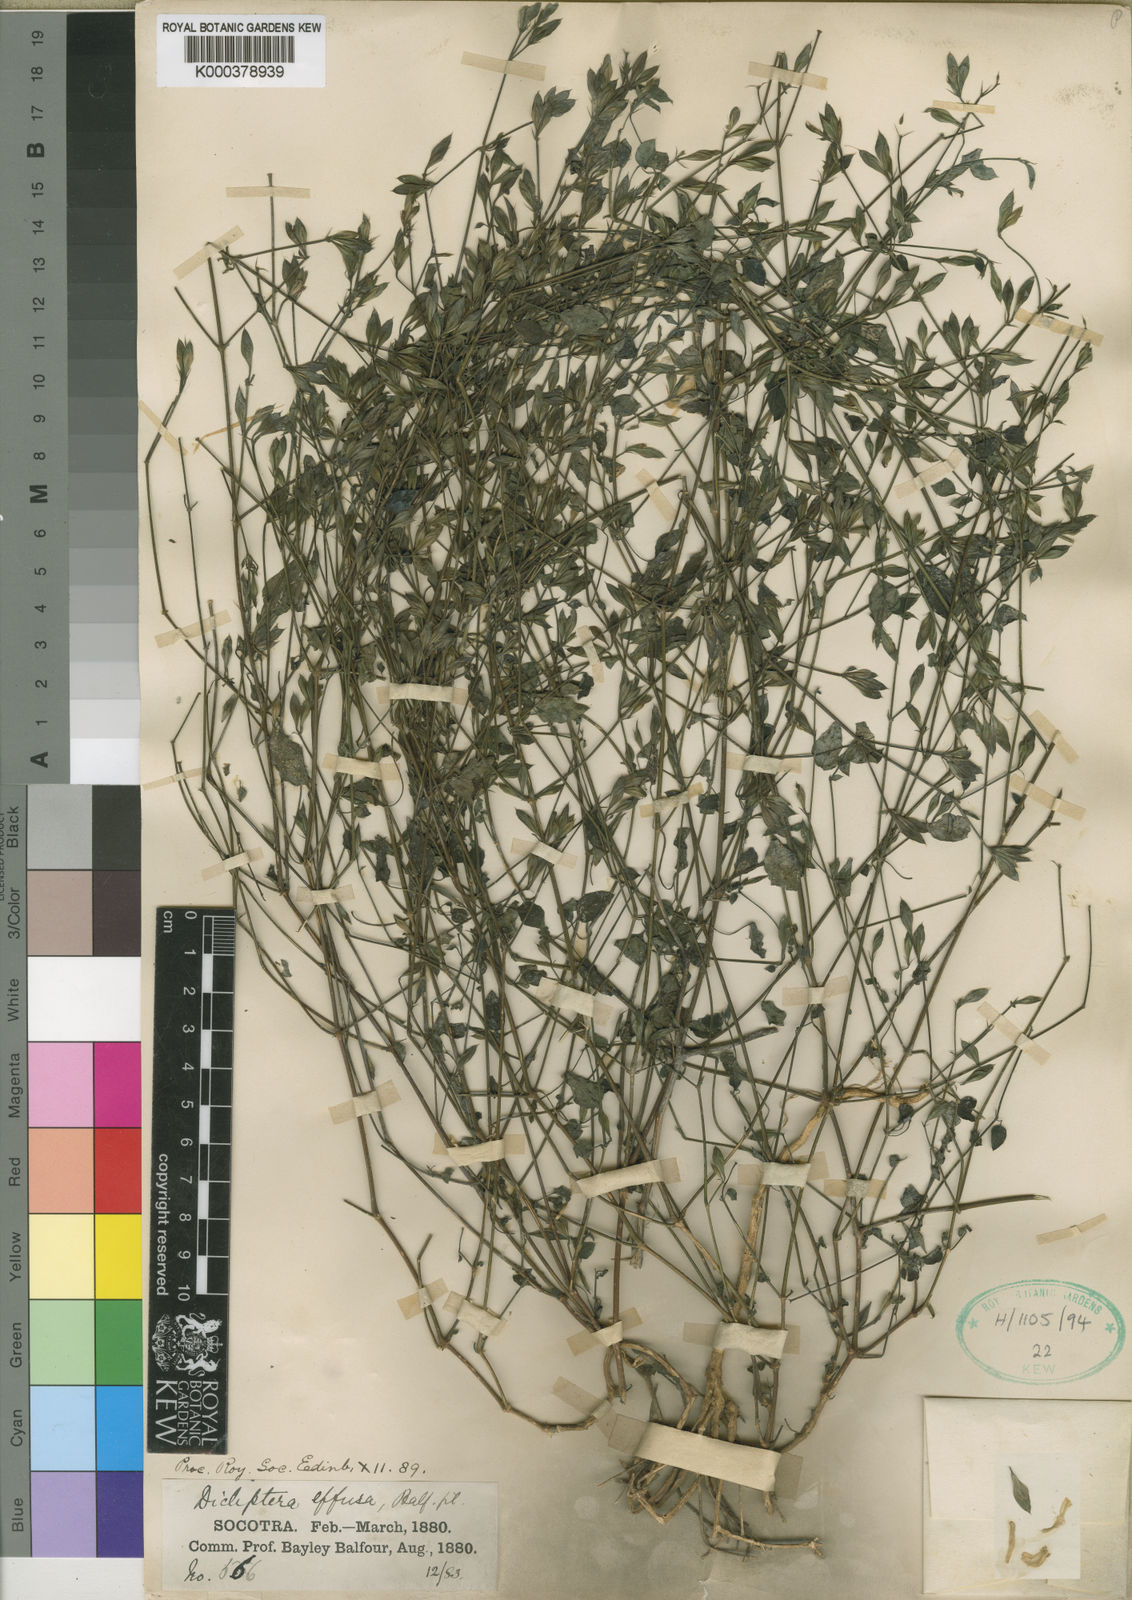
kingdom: Plantae
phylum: Tracheophyta
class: Magnoliopsida
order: Lamiales
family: Acanthaceae
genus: Dicliptera
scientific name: Dicliptera effusa
